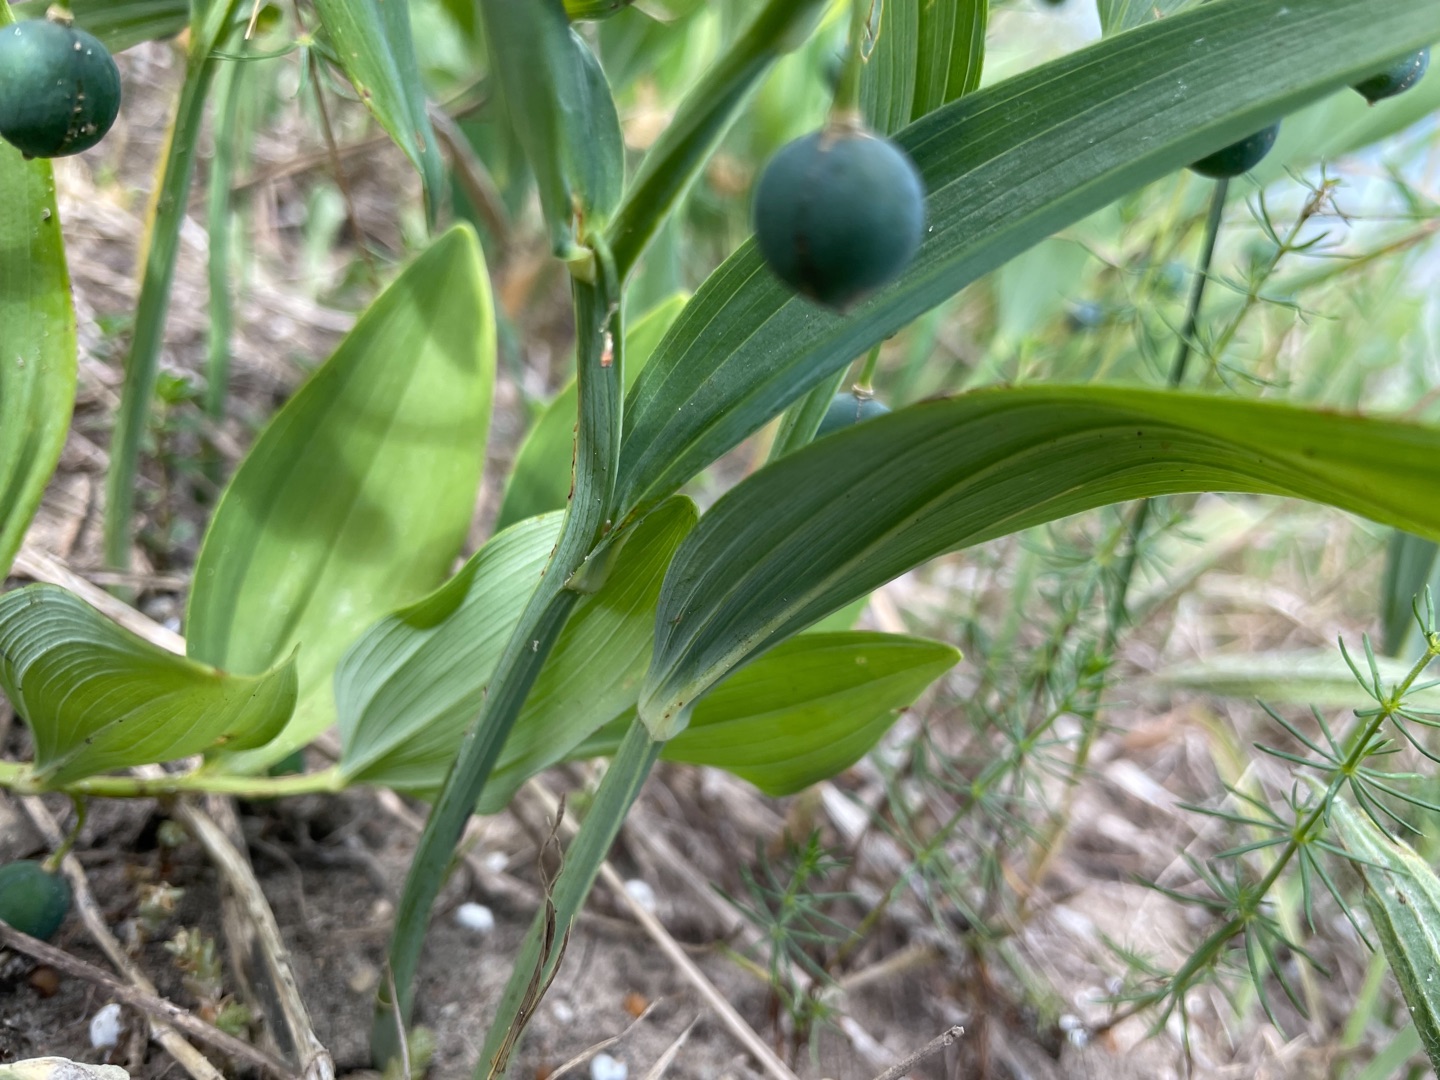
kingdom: Plantae
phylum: Tracheophyta
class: Liliopsida
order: Asparagales
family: Asparagaceae
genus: Polygonatum
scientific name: Polygonatum odoratum
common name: Kantet konval
